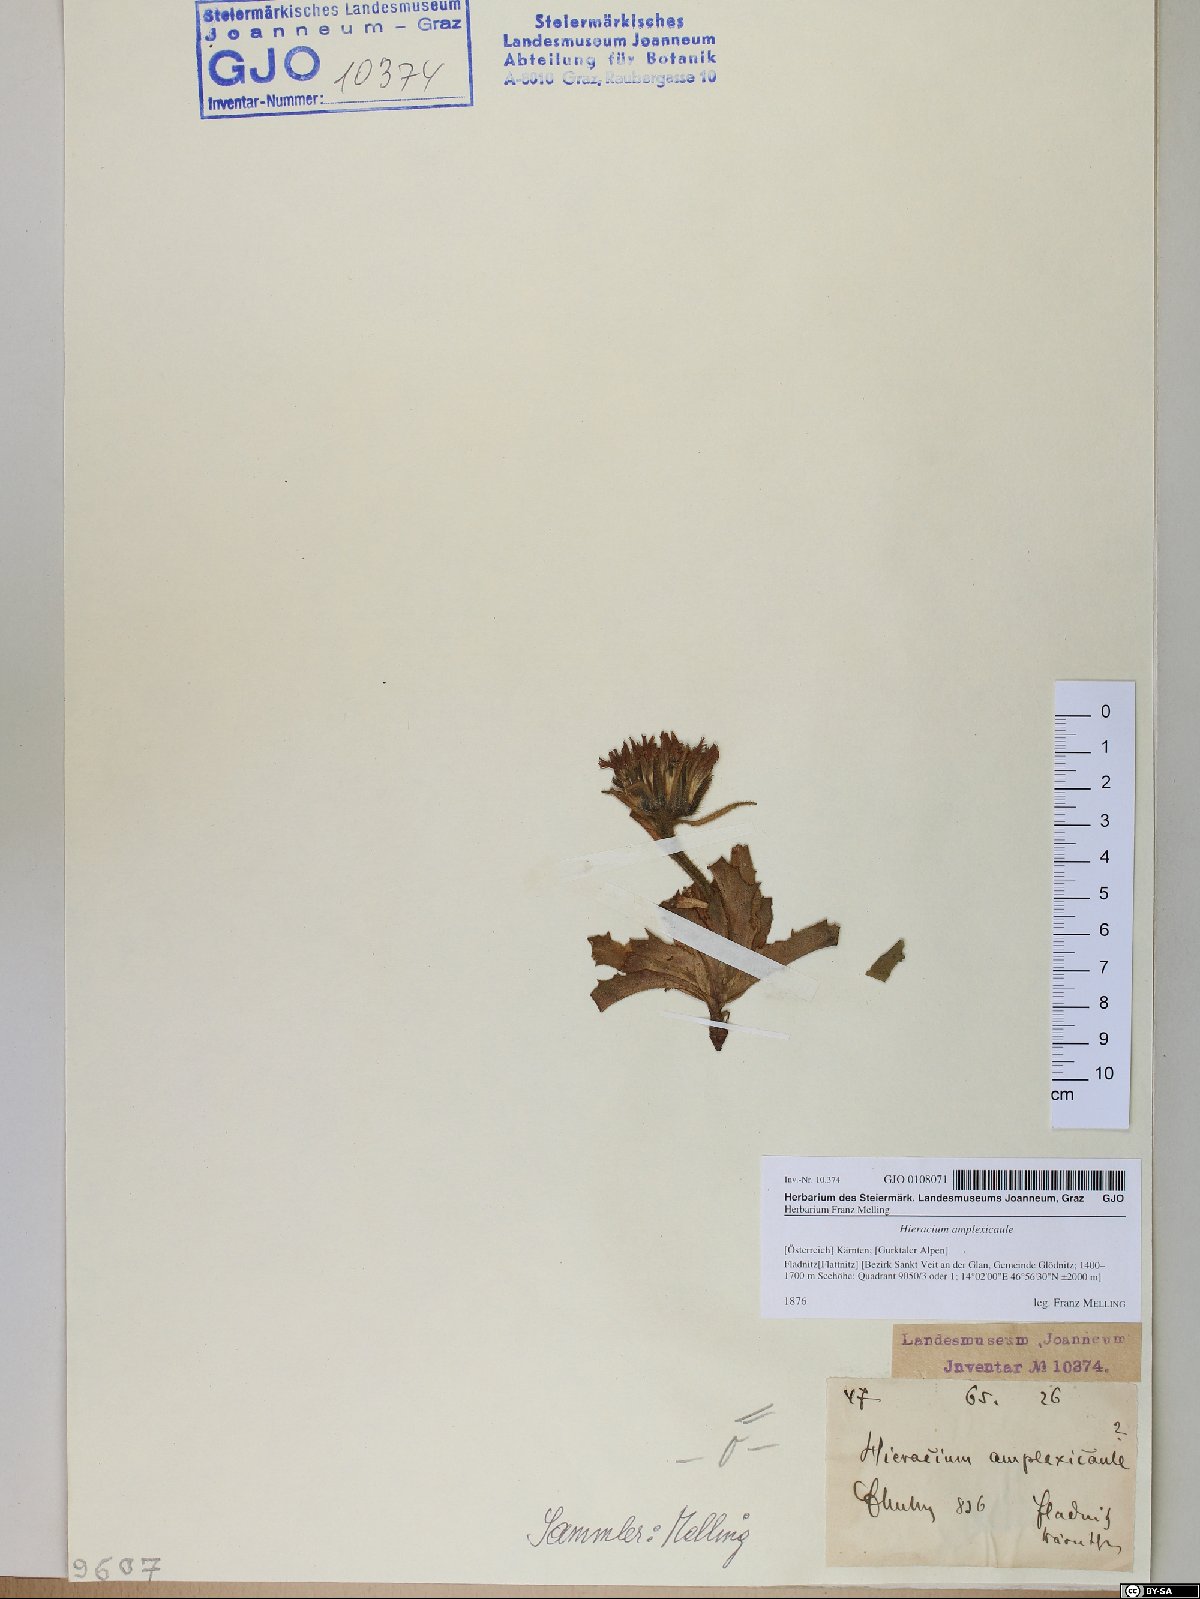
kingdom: Plantae
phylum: Tracheophyta
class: Magnoliopsida
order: Asterales
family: Asteraceae
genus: Hieracium
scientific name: Hieracium amplexicaule
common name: Sticky hawkweed
